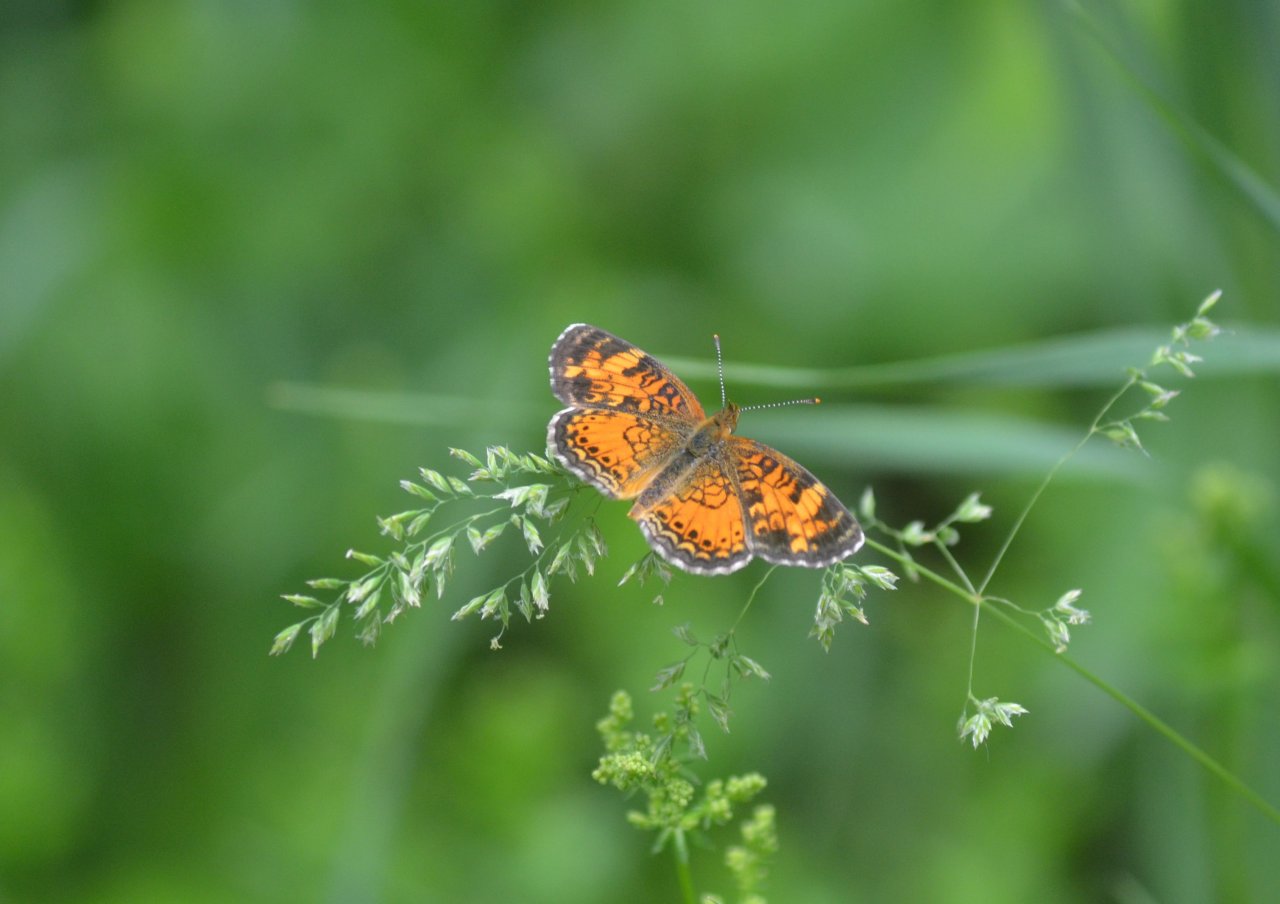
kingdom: Animalia
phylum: Arthropoda
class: Insecta
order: Lepidoptera
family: Nymphalidae
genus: Phyciodes
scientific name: Phyciodes tharos
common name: Northern Crescent
